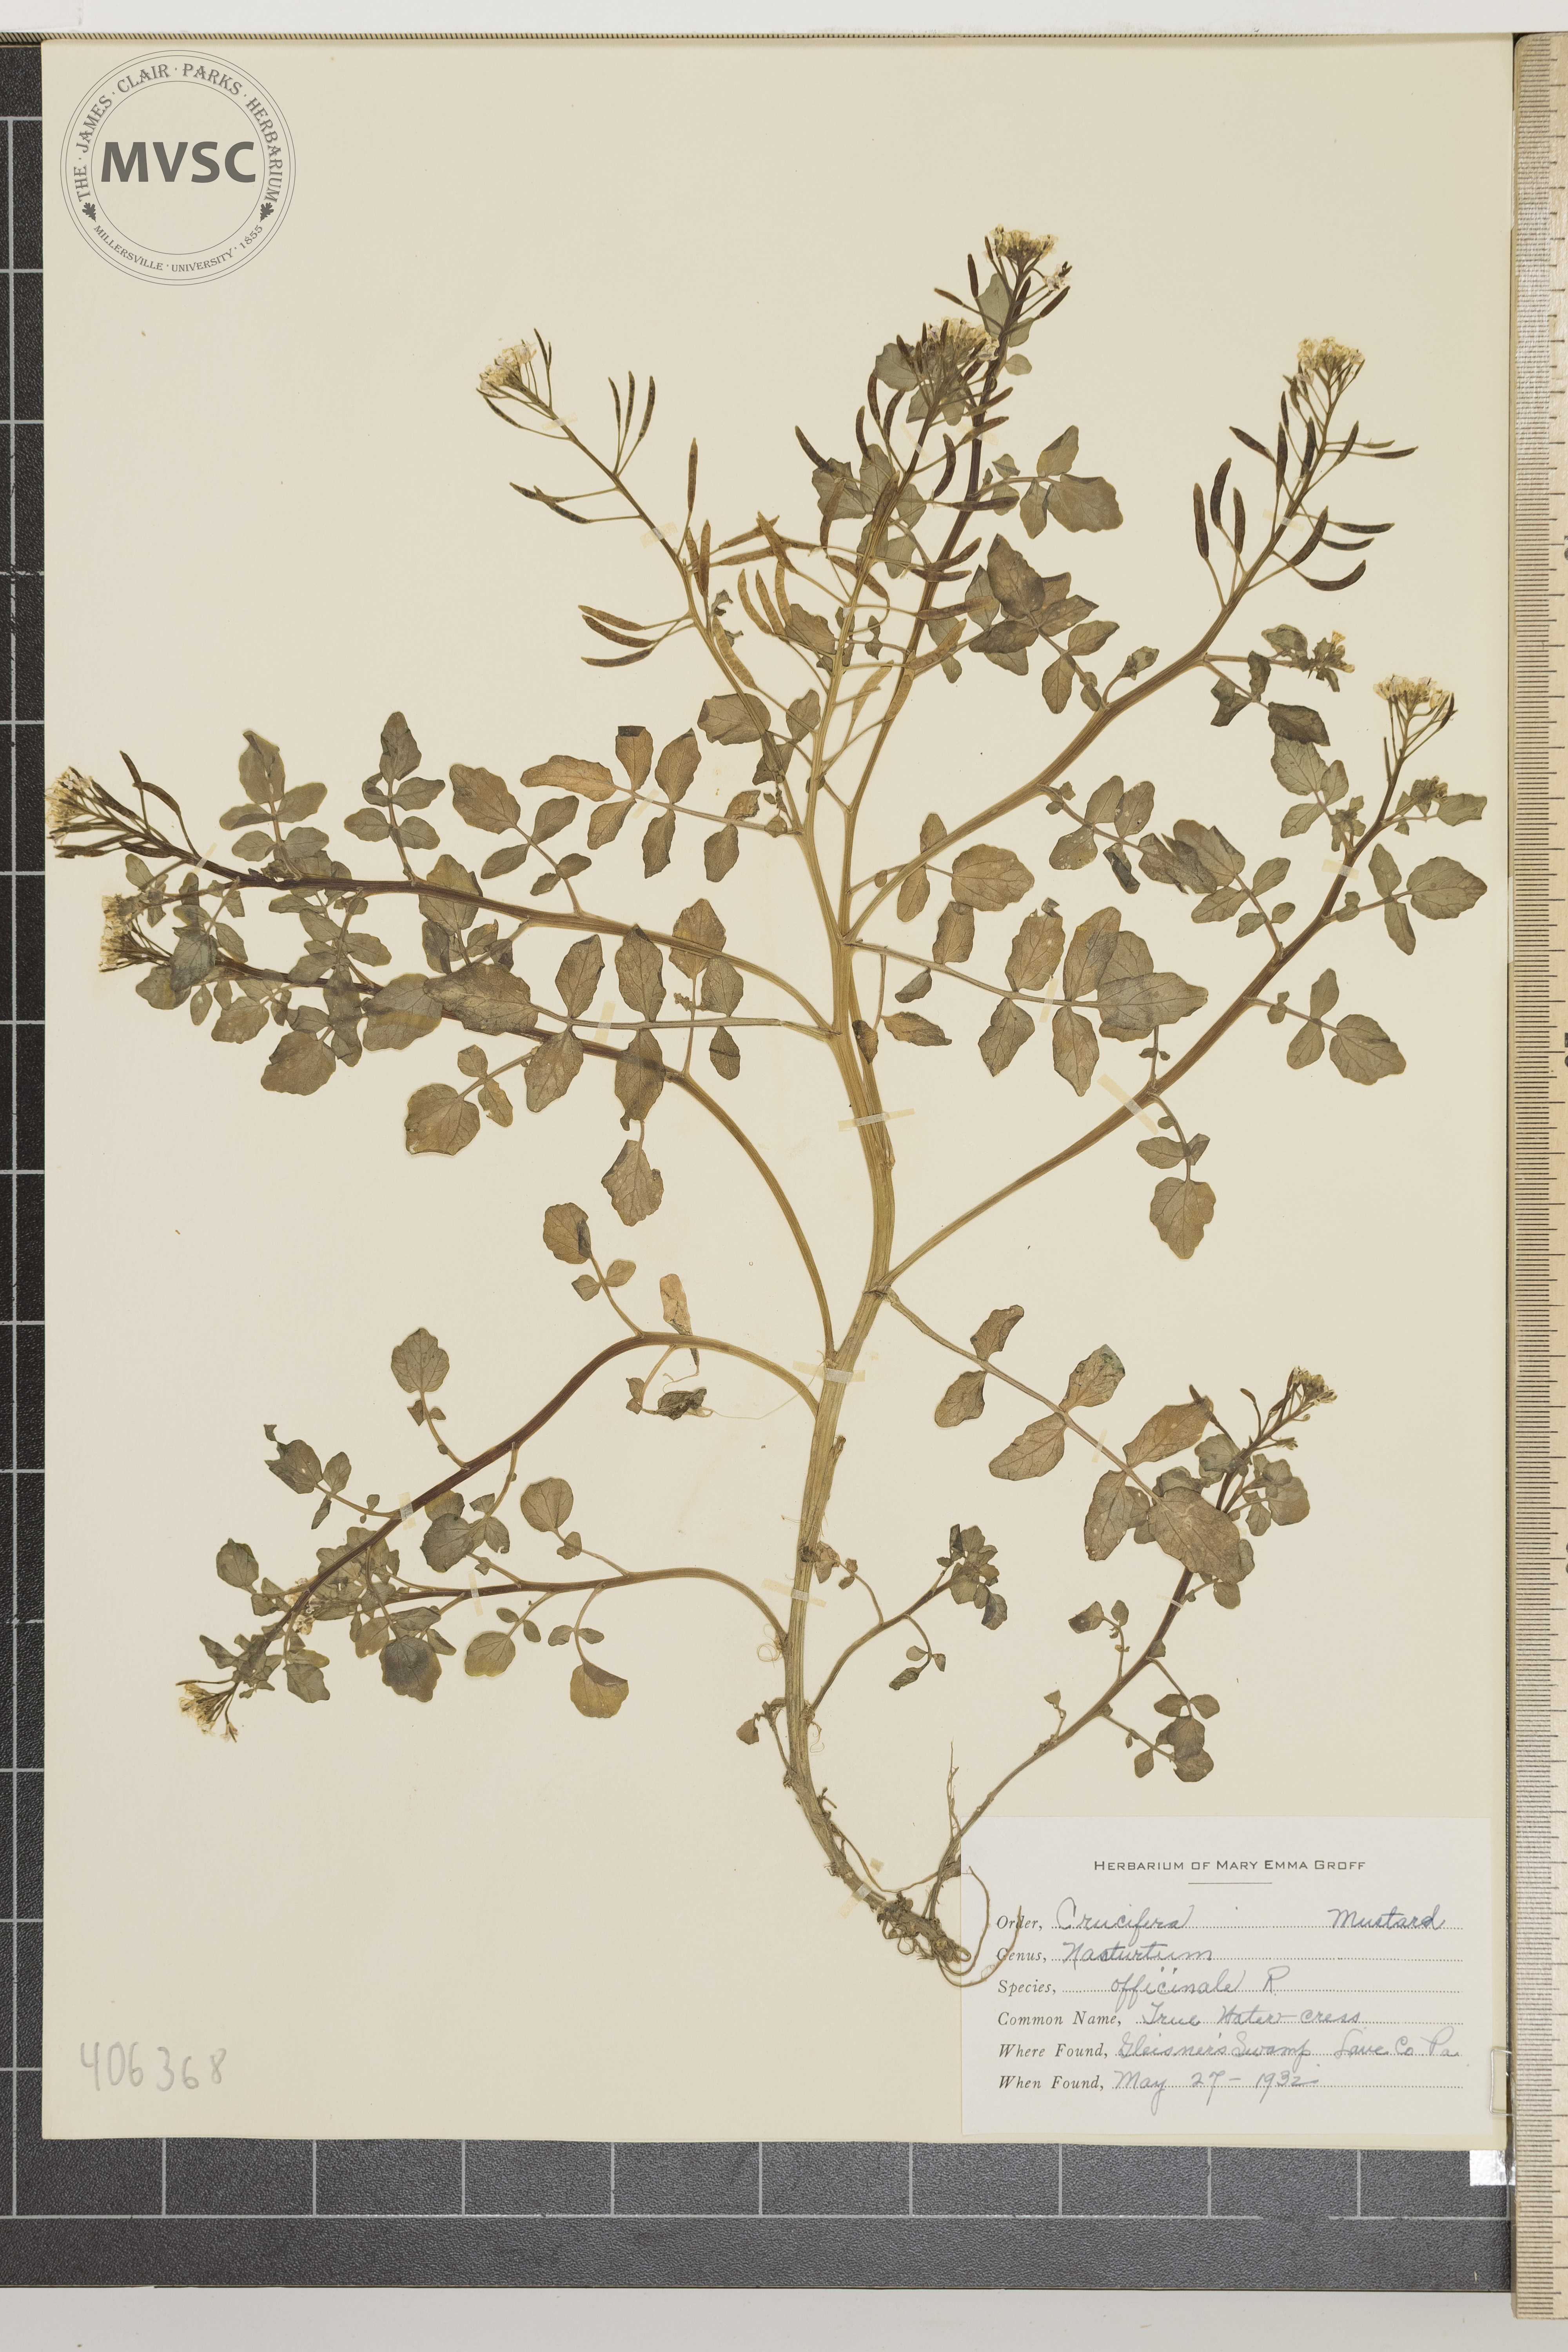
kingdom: Plantae
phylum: Tracheophyta
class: Magnoliopsida
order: Brassicales
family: Brassicaceae
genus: Nasturtium
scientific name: Nasturtium officinale
